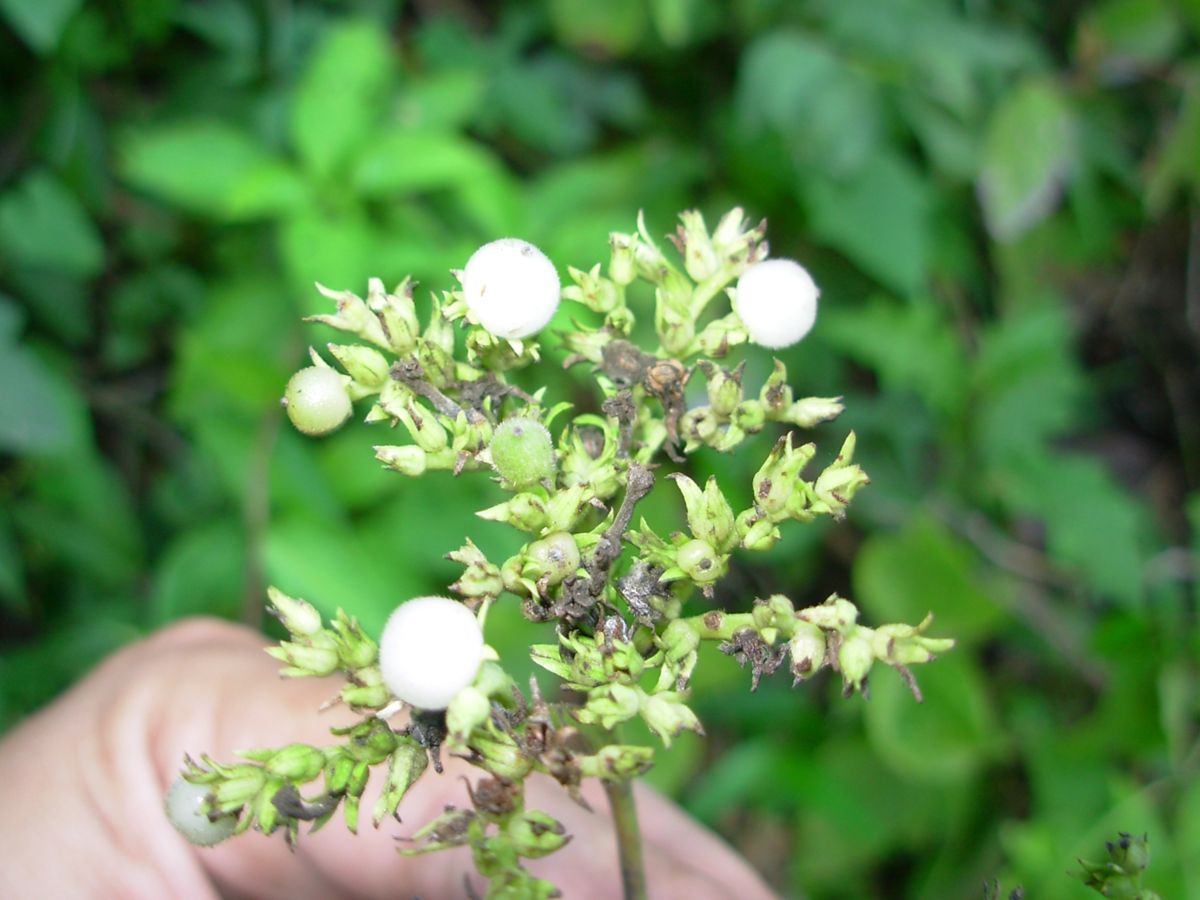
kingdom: Plantae
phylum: Tracheophyta
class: Magnoliopsida
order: Boraginales
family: Heliotropiaceae
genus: Heliotropium
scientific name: Heliotropium verdcourtii
